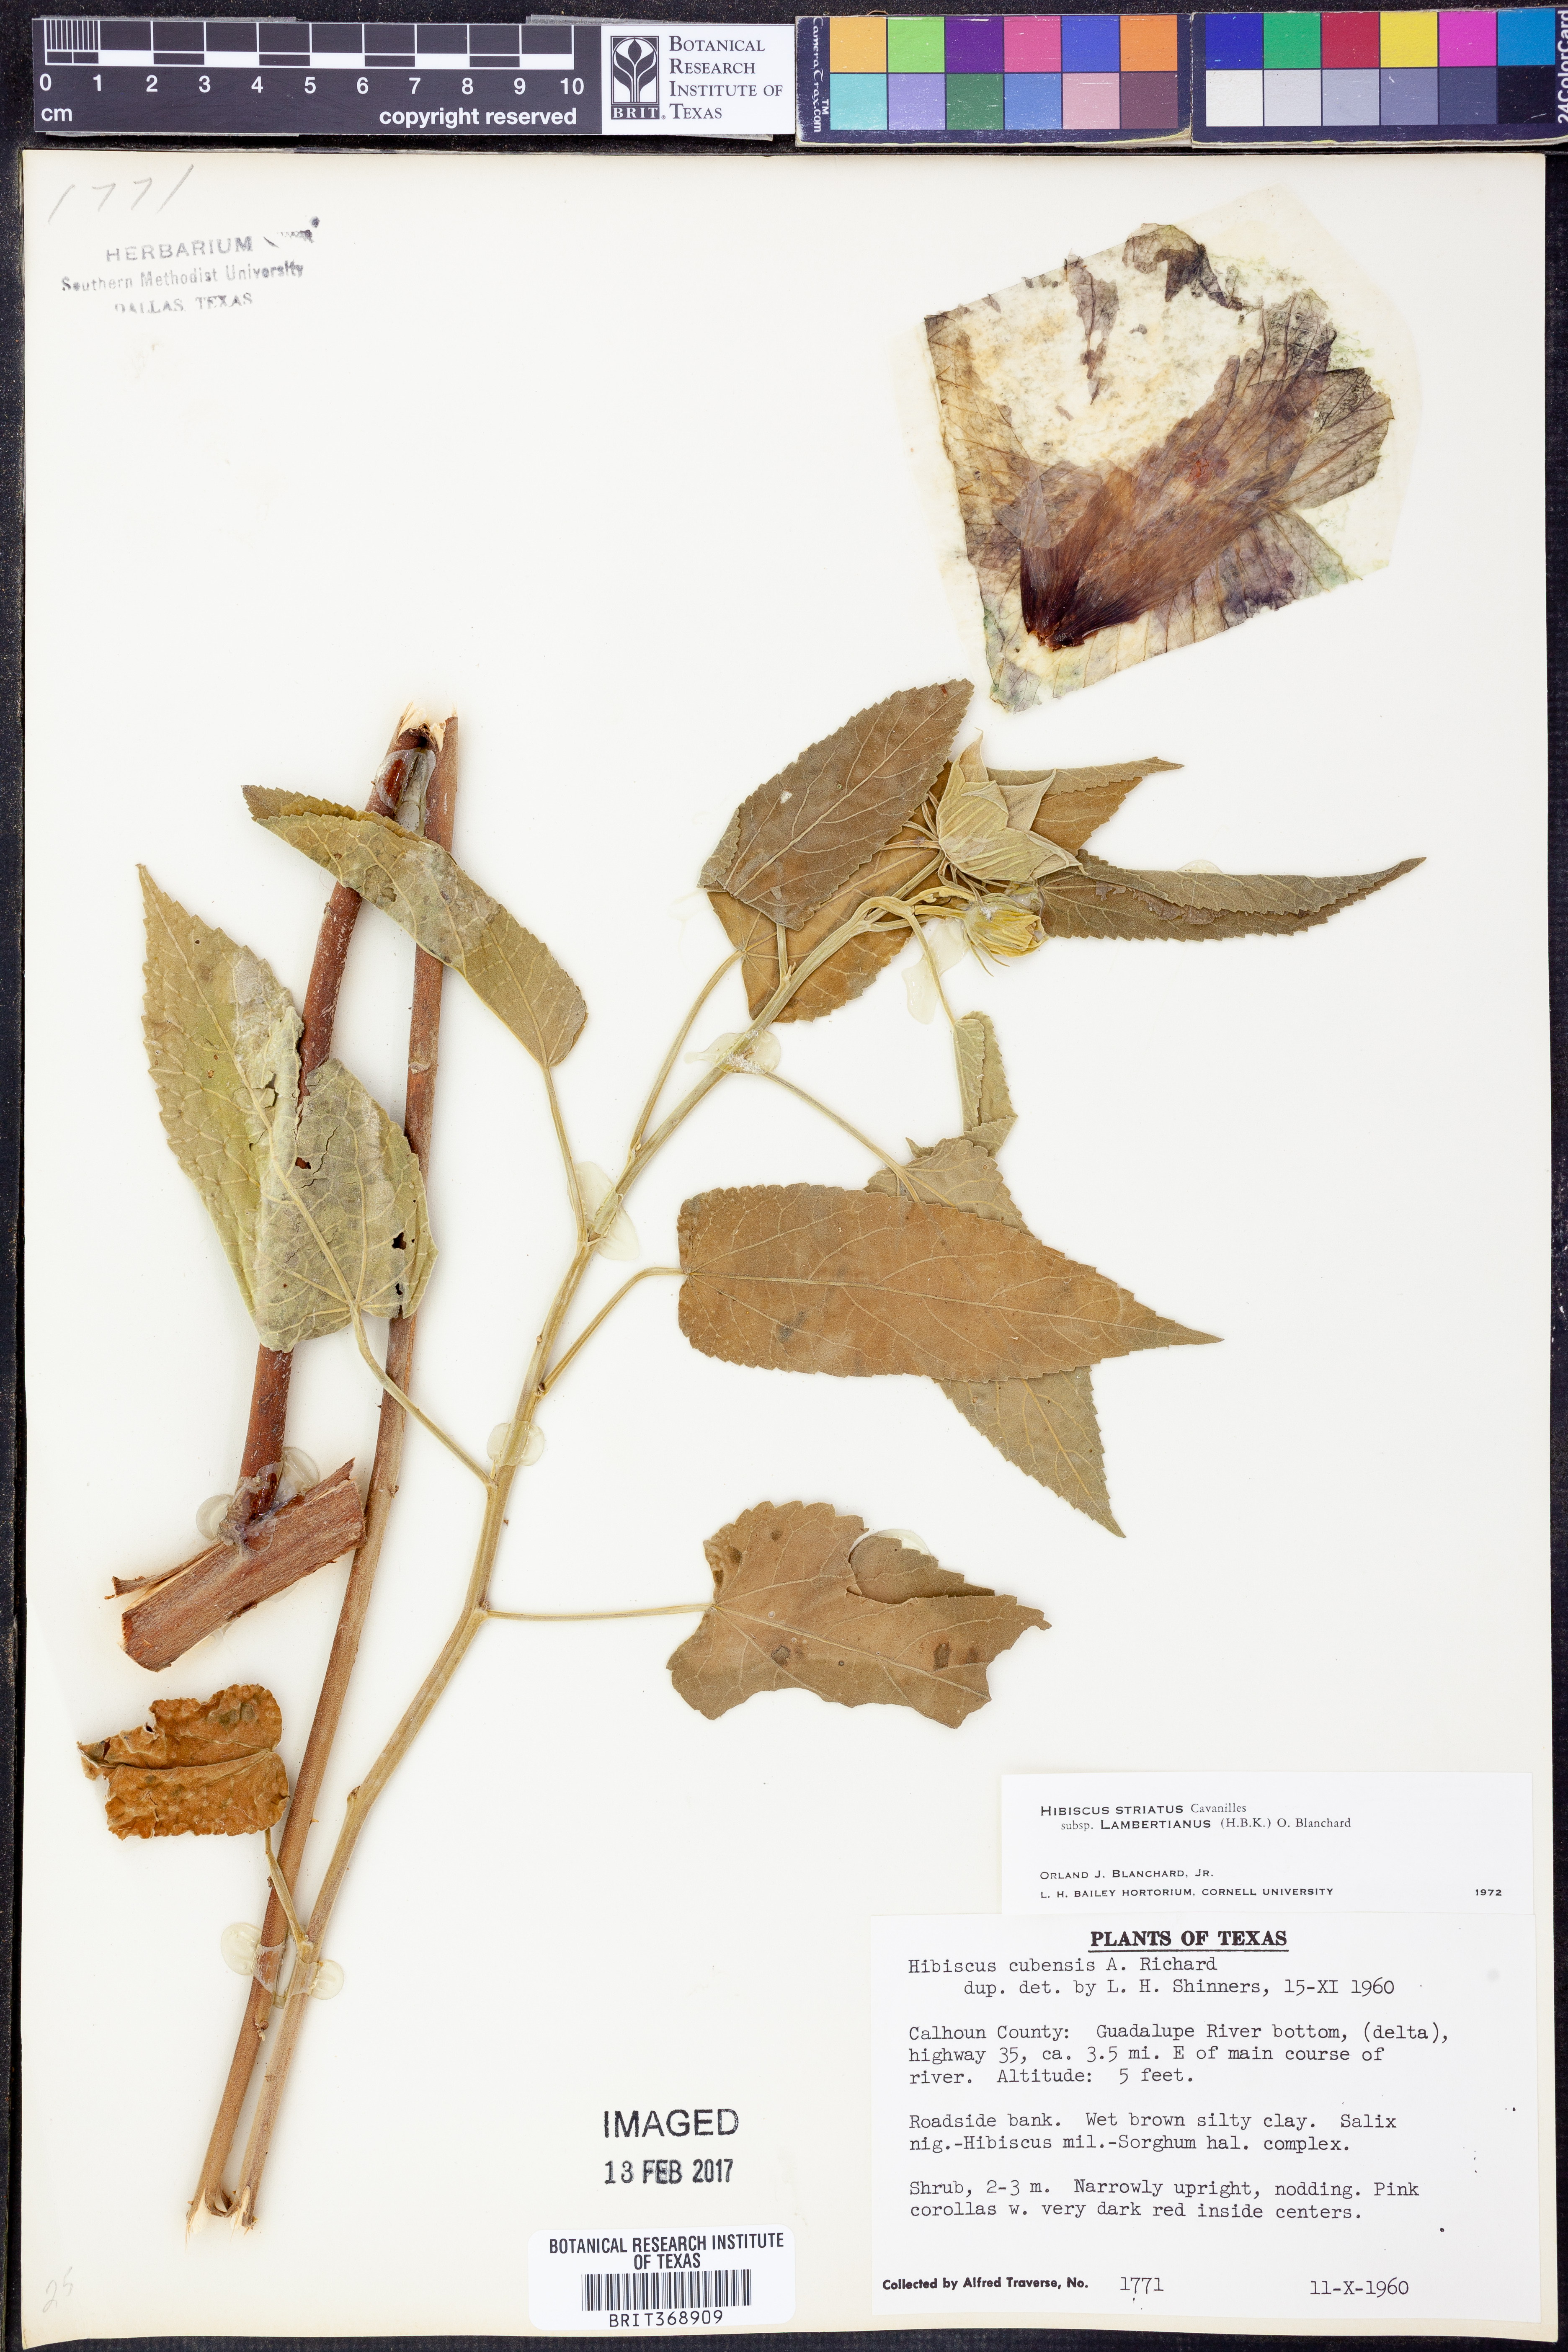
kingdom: Plantae
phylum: Tracheophyta
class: Magnoliopsida
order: Malvales
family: Malvaceae
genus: Hibiscus
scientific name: Hibiscus striatus
